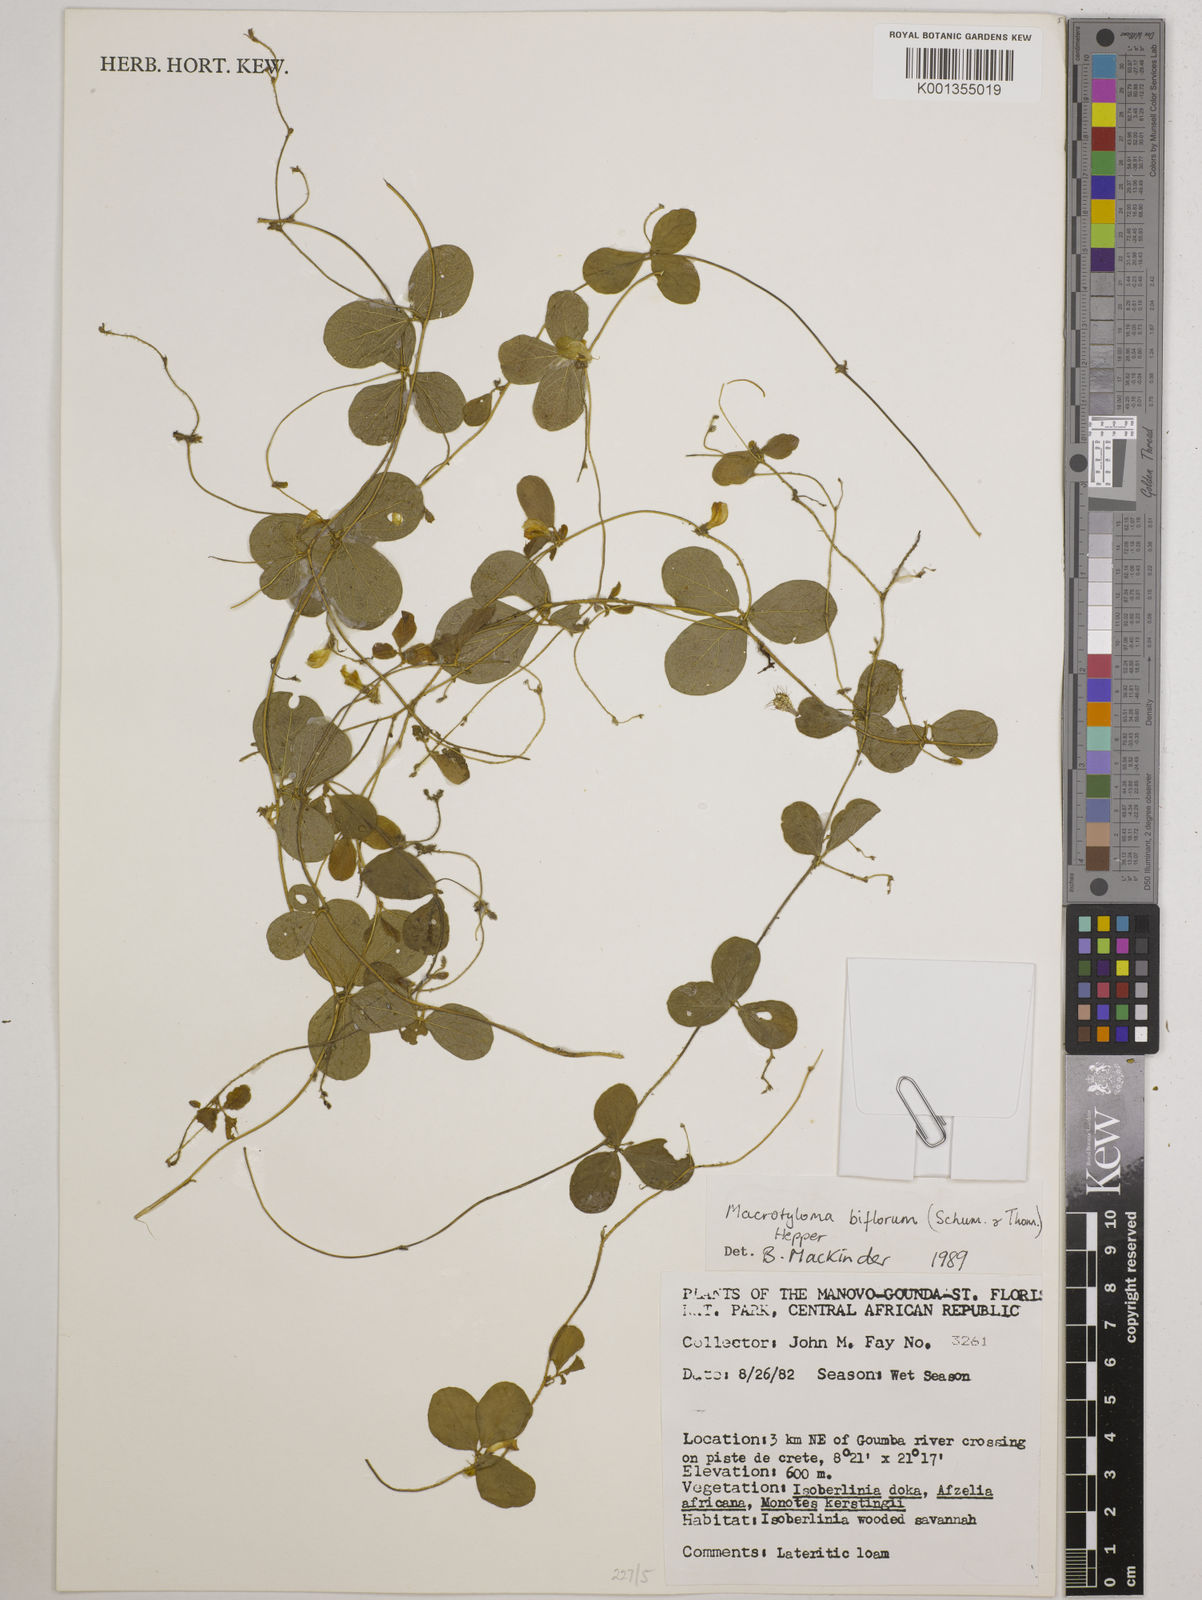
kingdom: Plantae
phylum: Tracheophyta
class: Magnoliopsida
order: Fabales
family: Fabaceae
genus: Macrotyloma
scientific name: Macrotyloma biflorum
